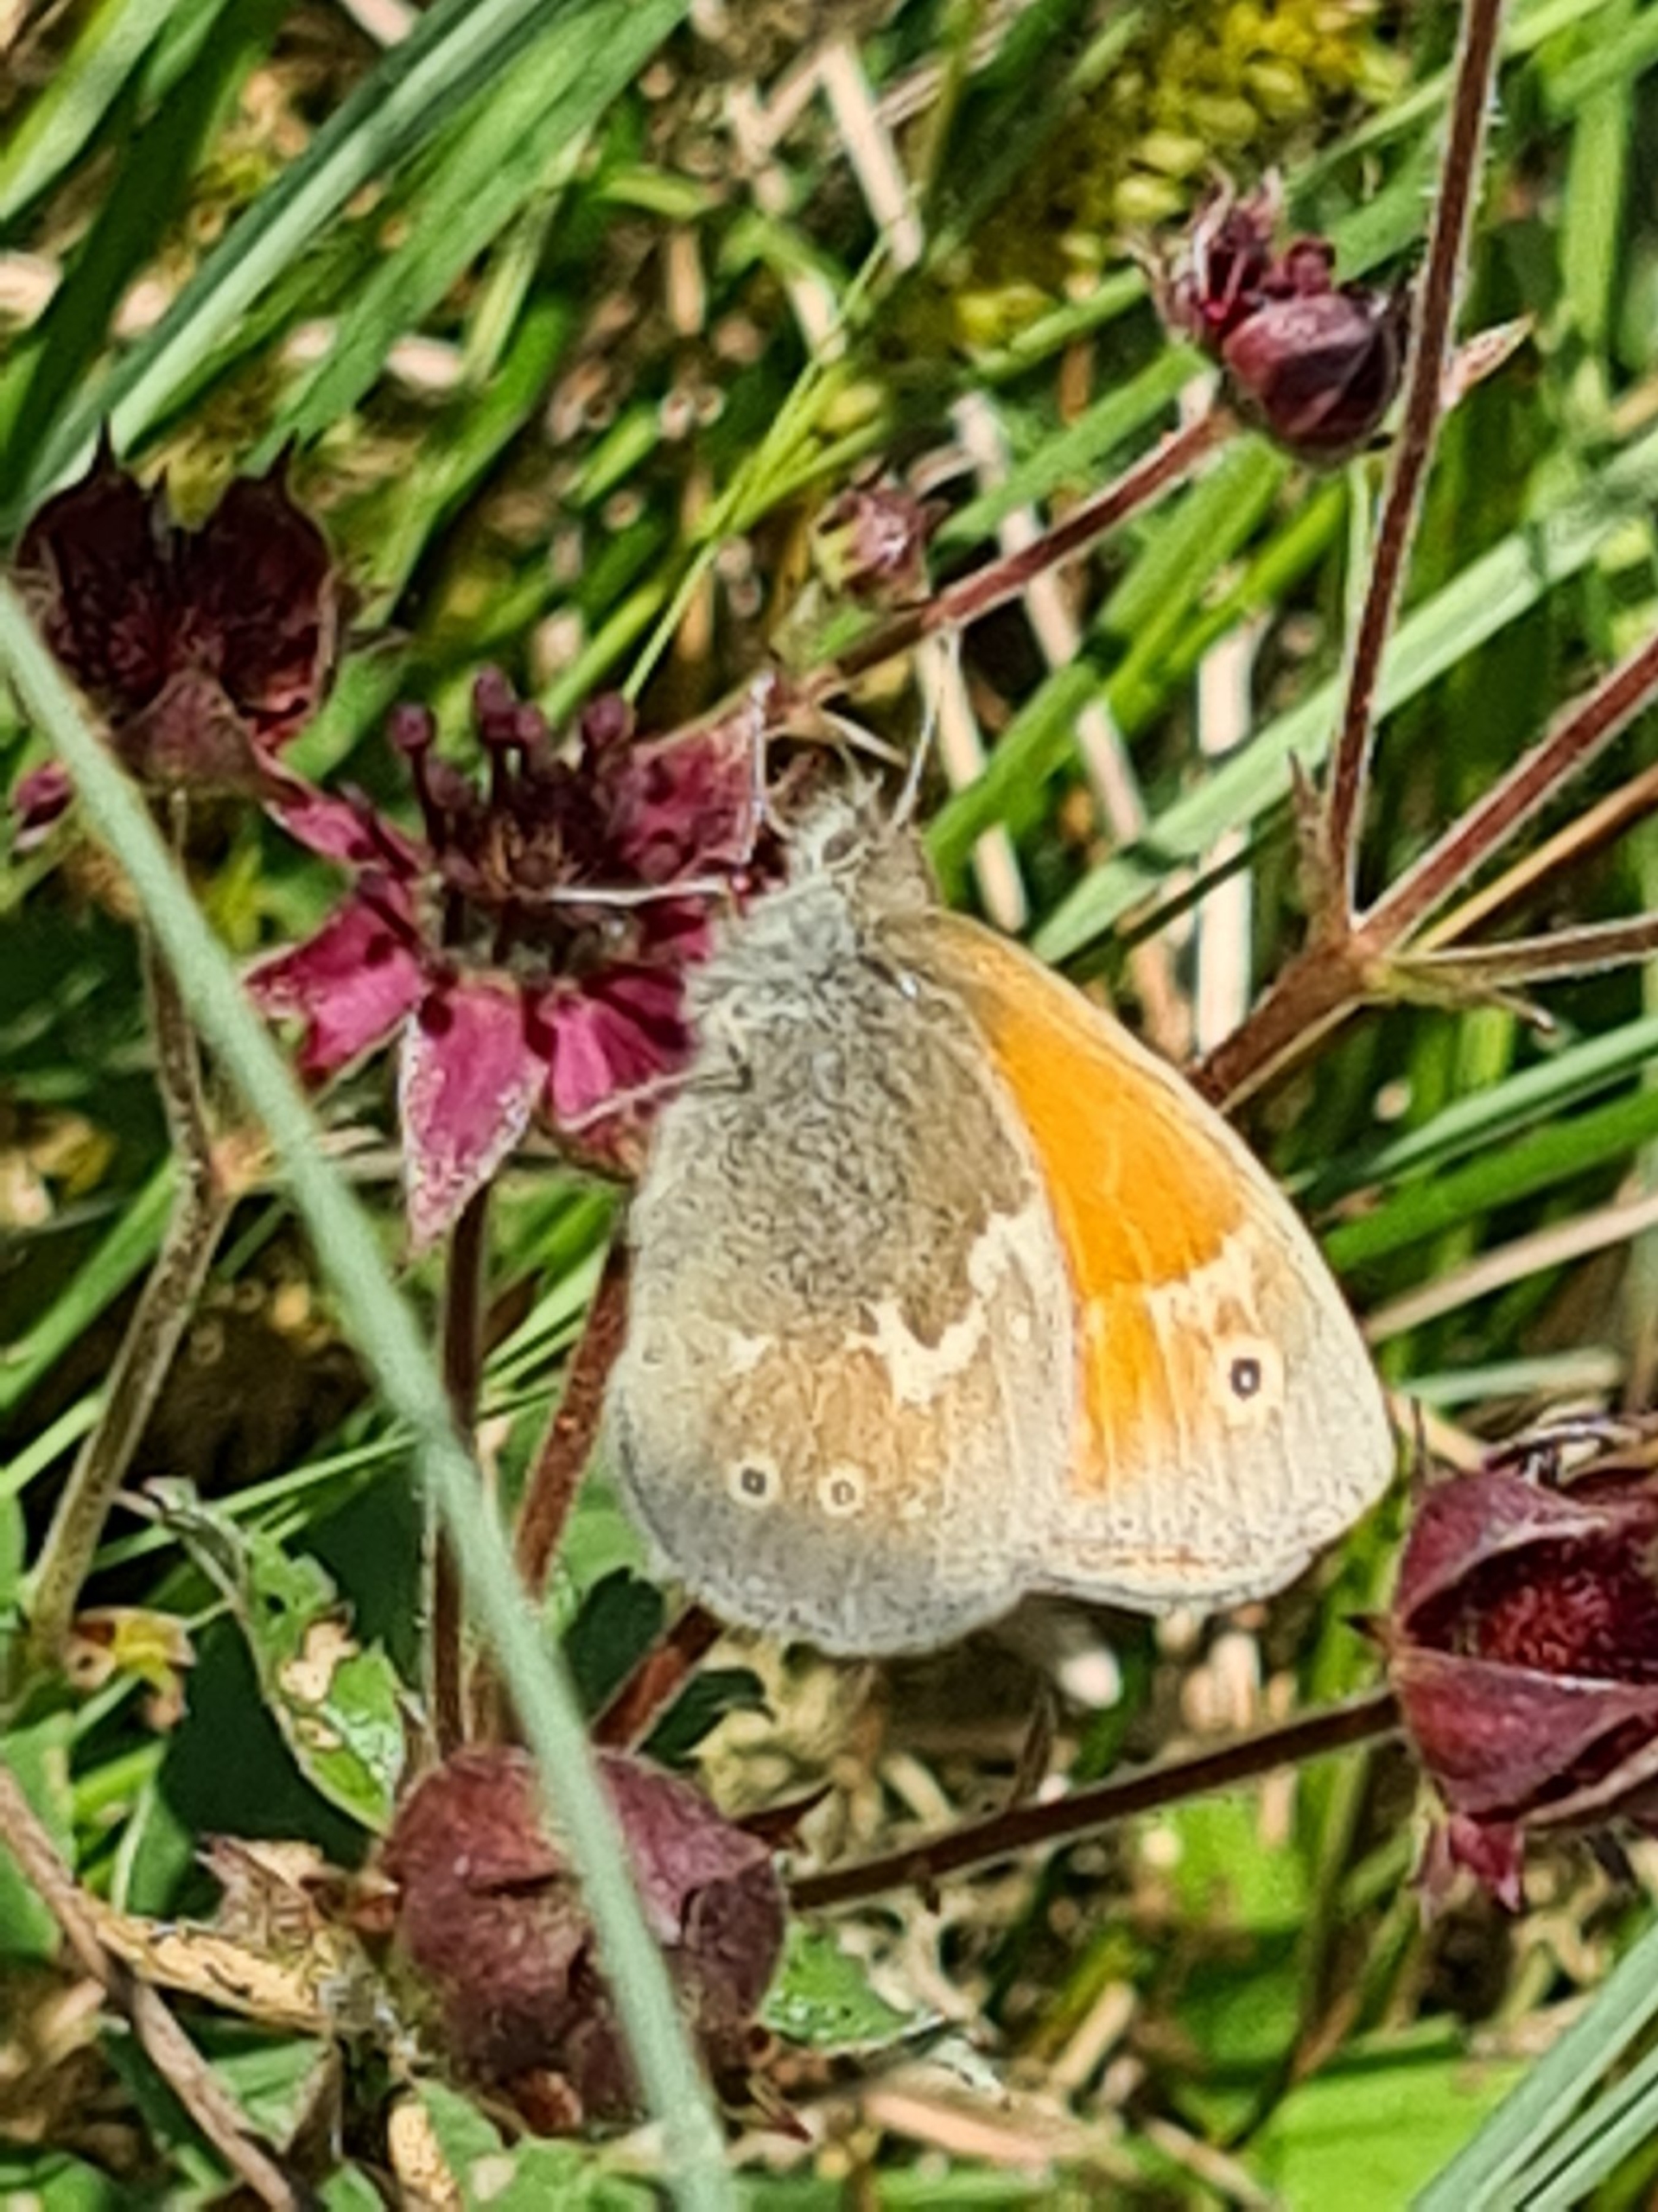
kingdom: Animalia
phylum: Arthropoda
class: Insecta
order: Lepidoptera
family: Nymphalidae
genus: Coenonympha
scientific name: Coenonympha tullia
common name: Moserandøje
